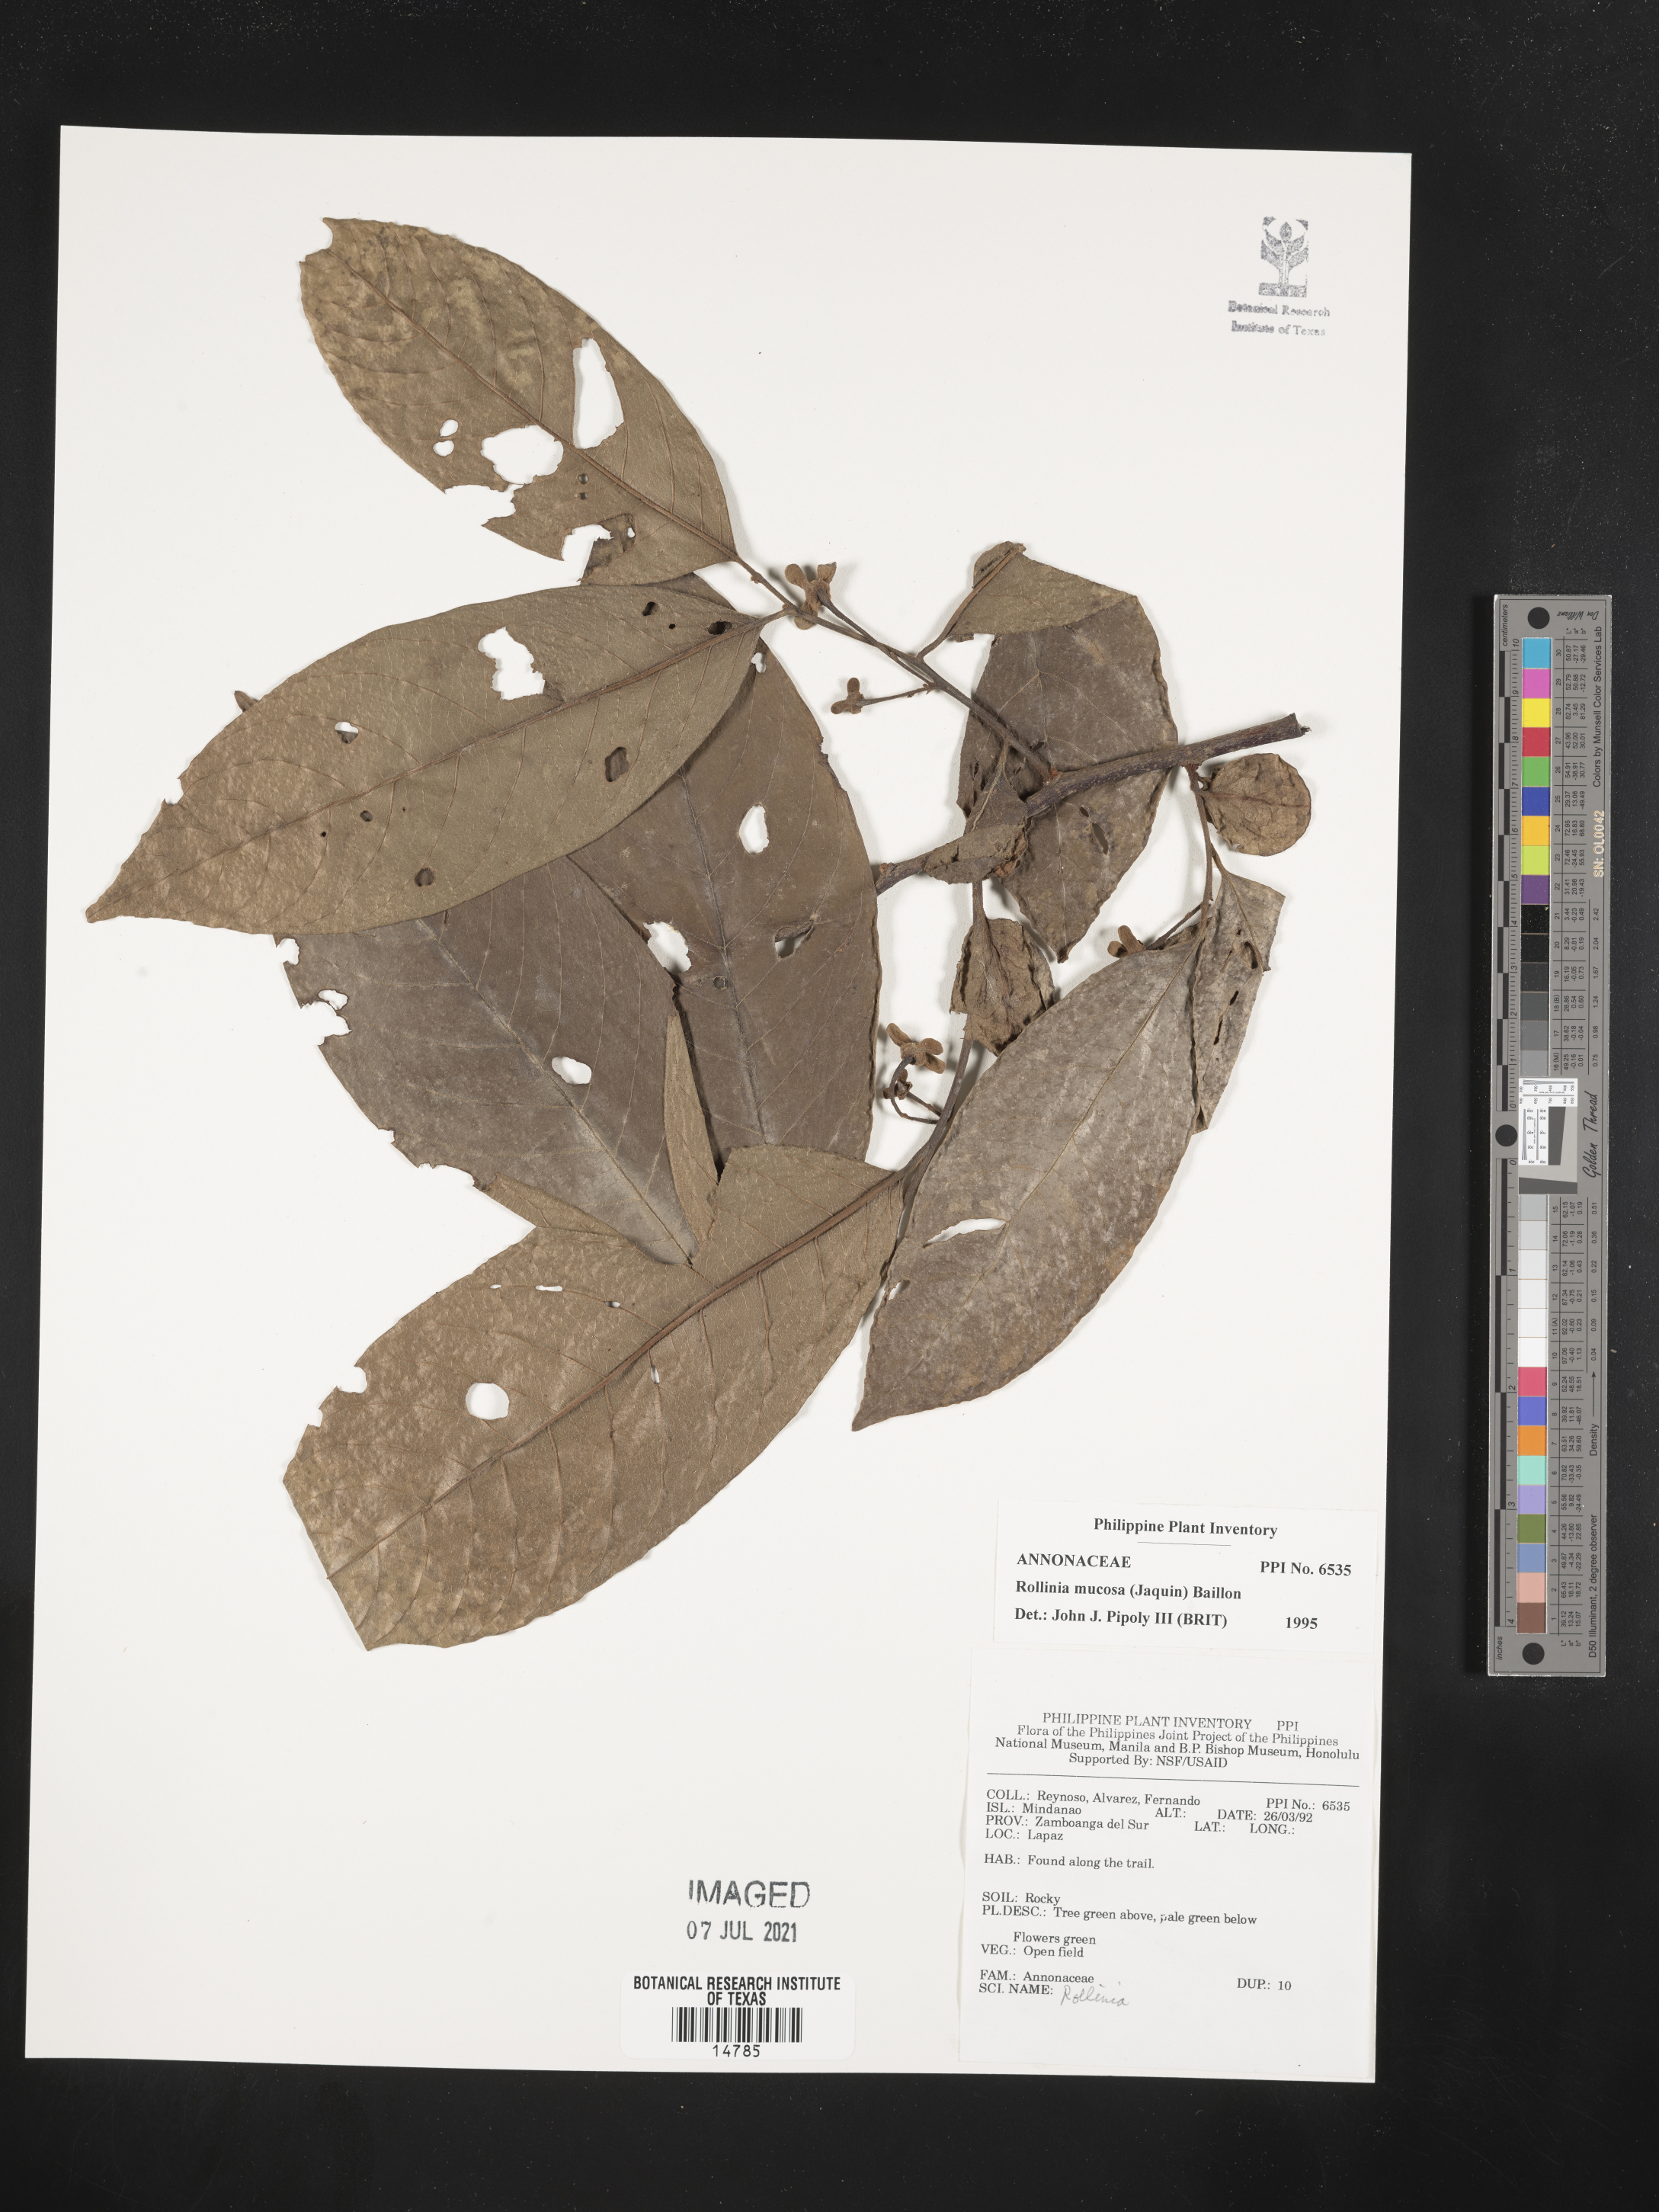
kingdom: Plantae
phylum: Tracheophyta
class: Magnoliopsida
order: Magnoliales
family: Annonaceae
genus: Annona
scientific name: Annona mucosa
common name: Sugar apple
